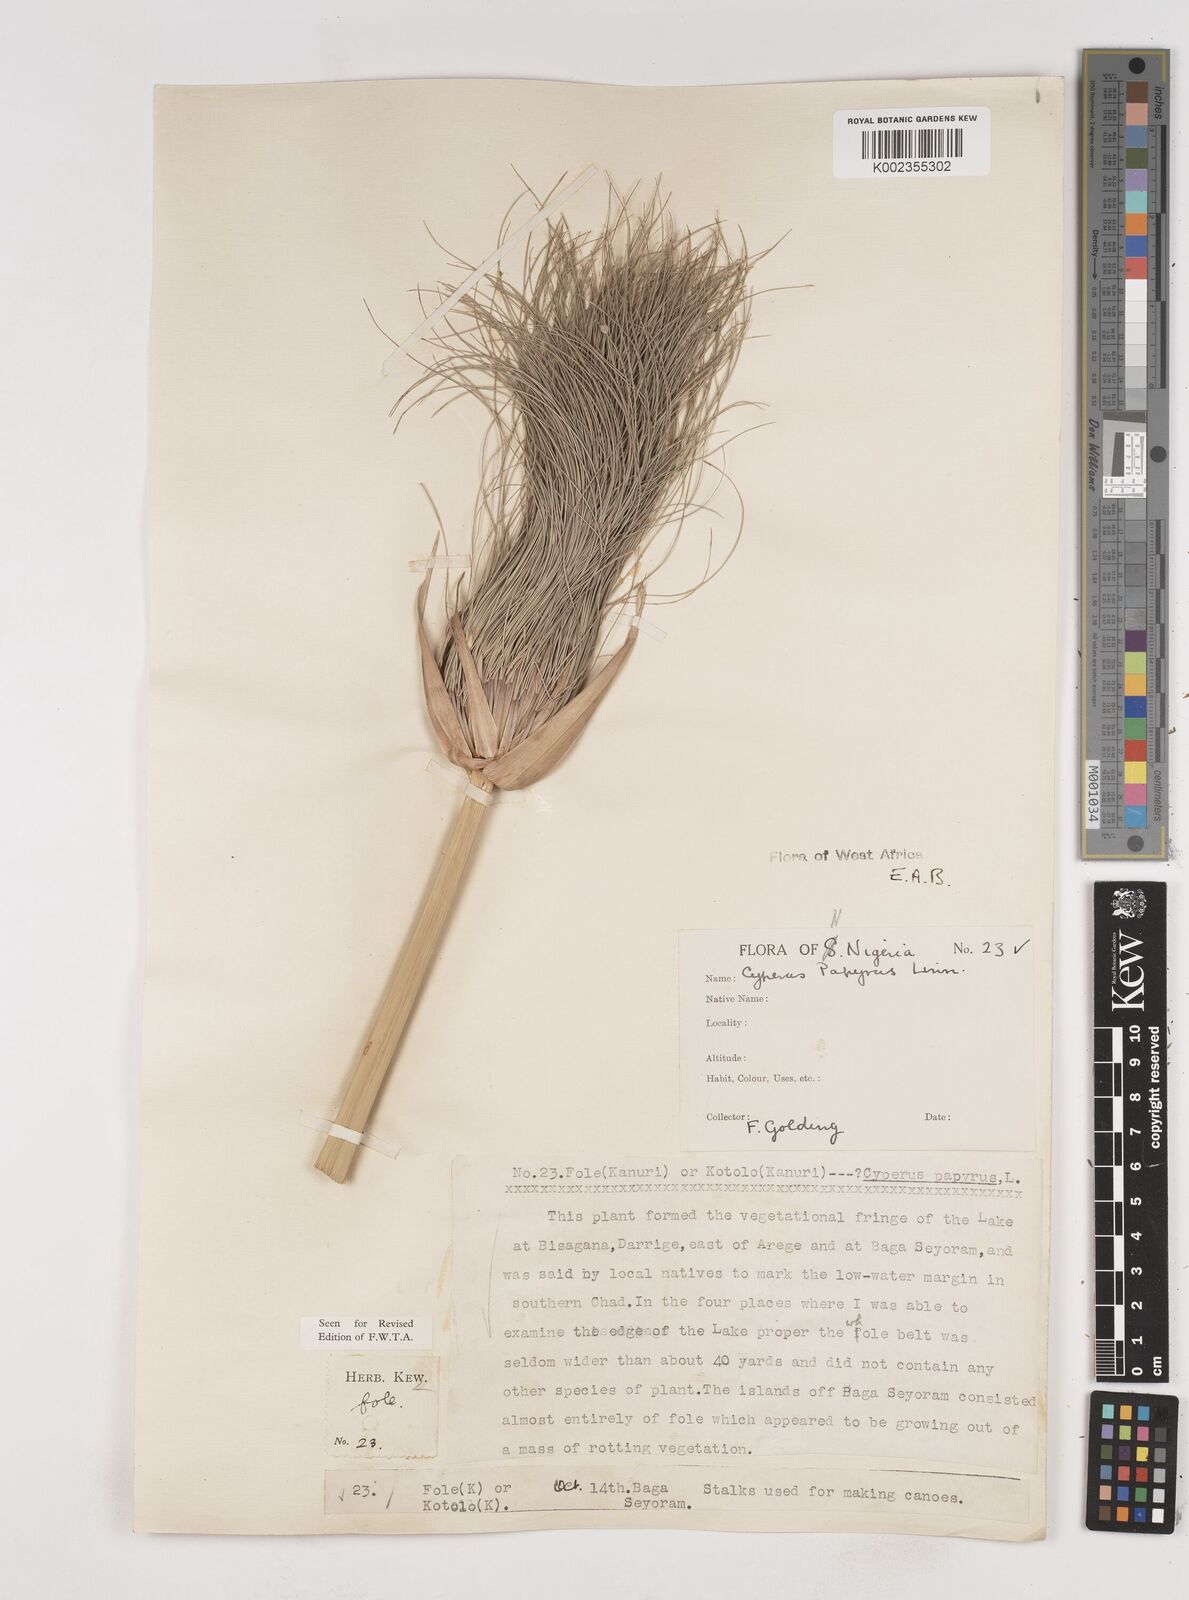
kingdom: Plantae
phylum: Tracheophyta
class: Liliopsida
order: Poales
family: Cyperaceae
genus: Cyperus
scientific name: Cyperus papyrus
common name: Papyrus
